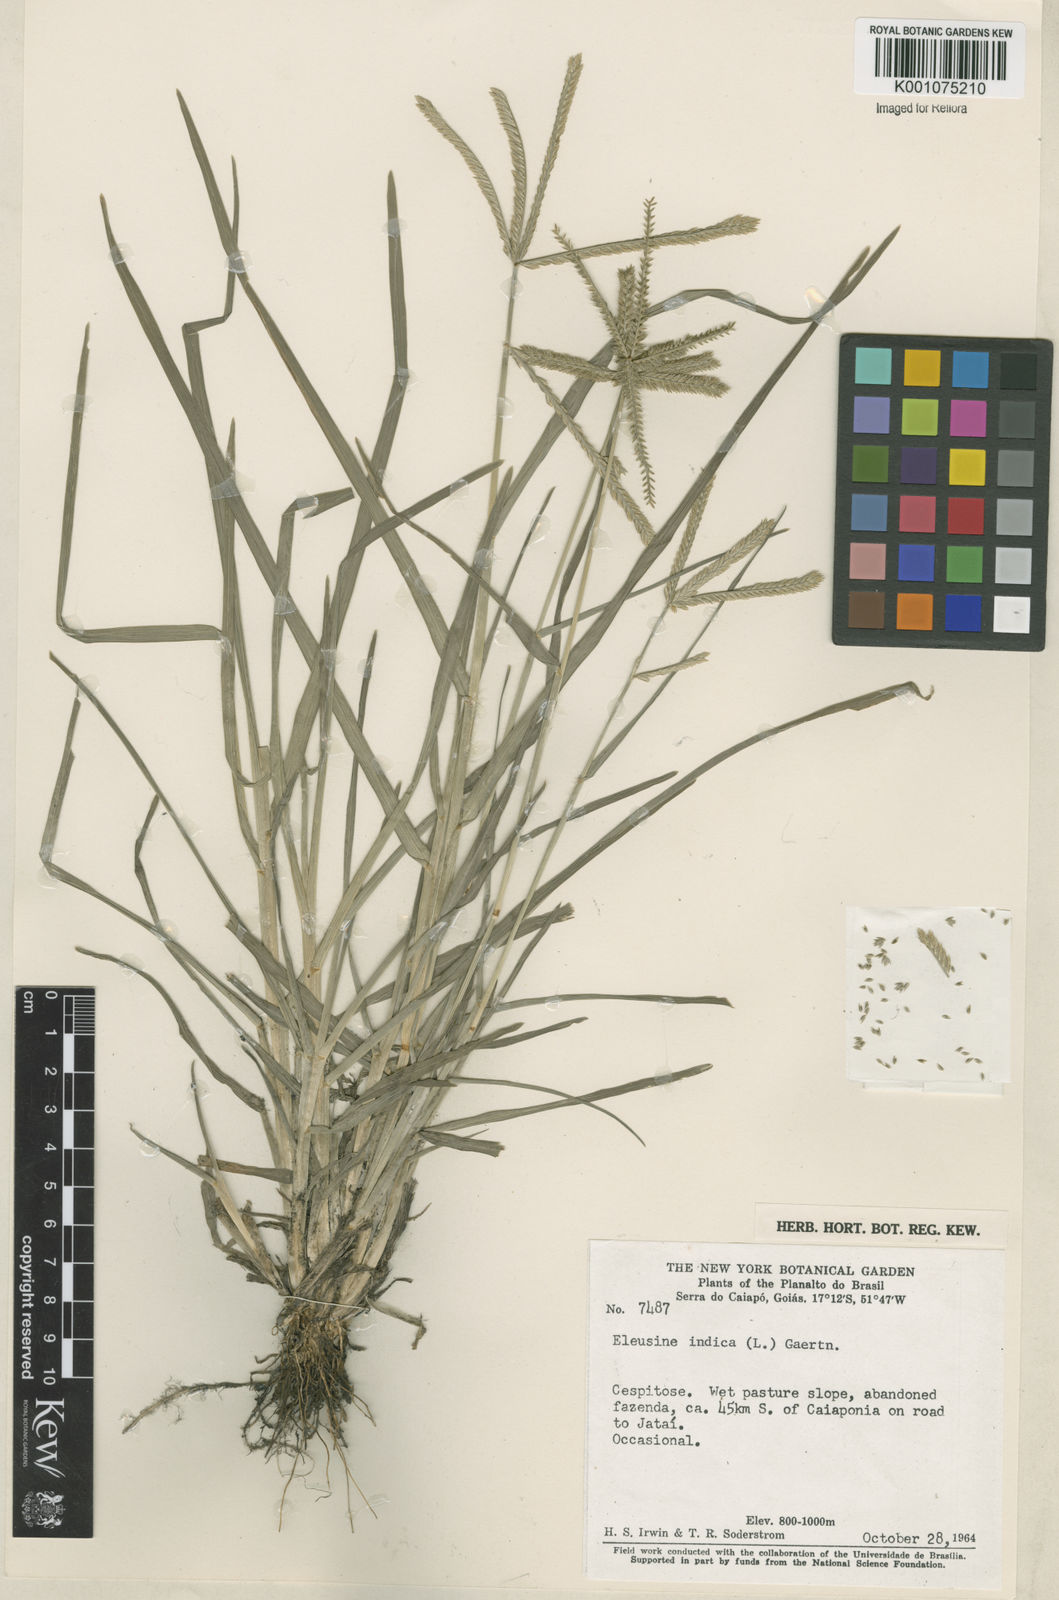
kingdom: Plantae
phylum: Tracheophyta
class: Liliopsida
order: Poales
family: Poaceae
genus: Eleusine
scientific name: Eleusine indica
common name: Yard-grass
